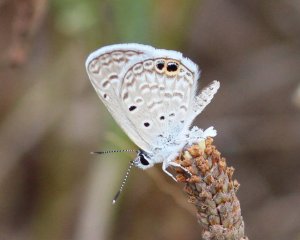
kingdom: Animalia
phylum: Arthropoda
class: Insecta
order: Lepidoptera
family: Lycaenidae
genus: Hemiargus
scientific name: Hemiargus ceraunus
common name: Ceraunus Blue
